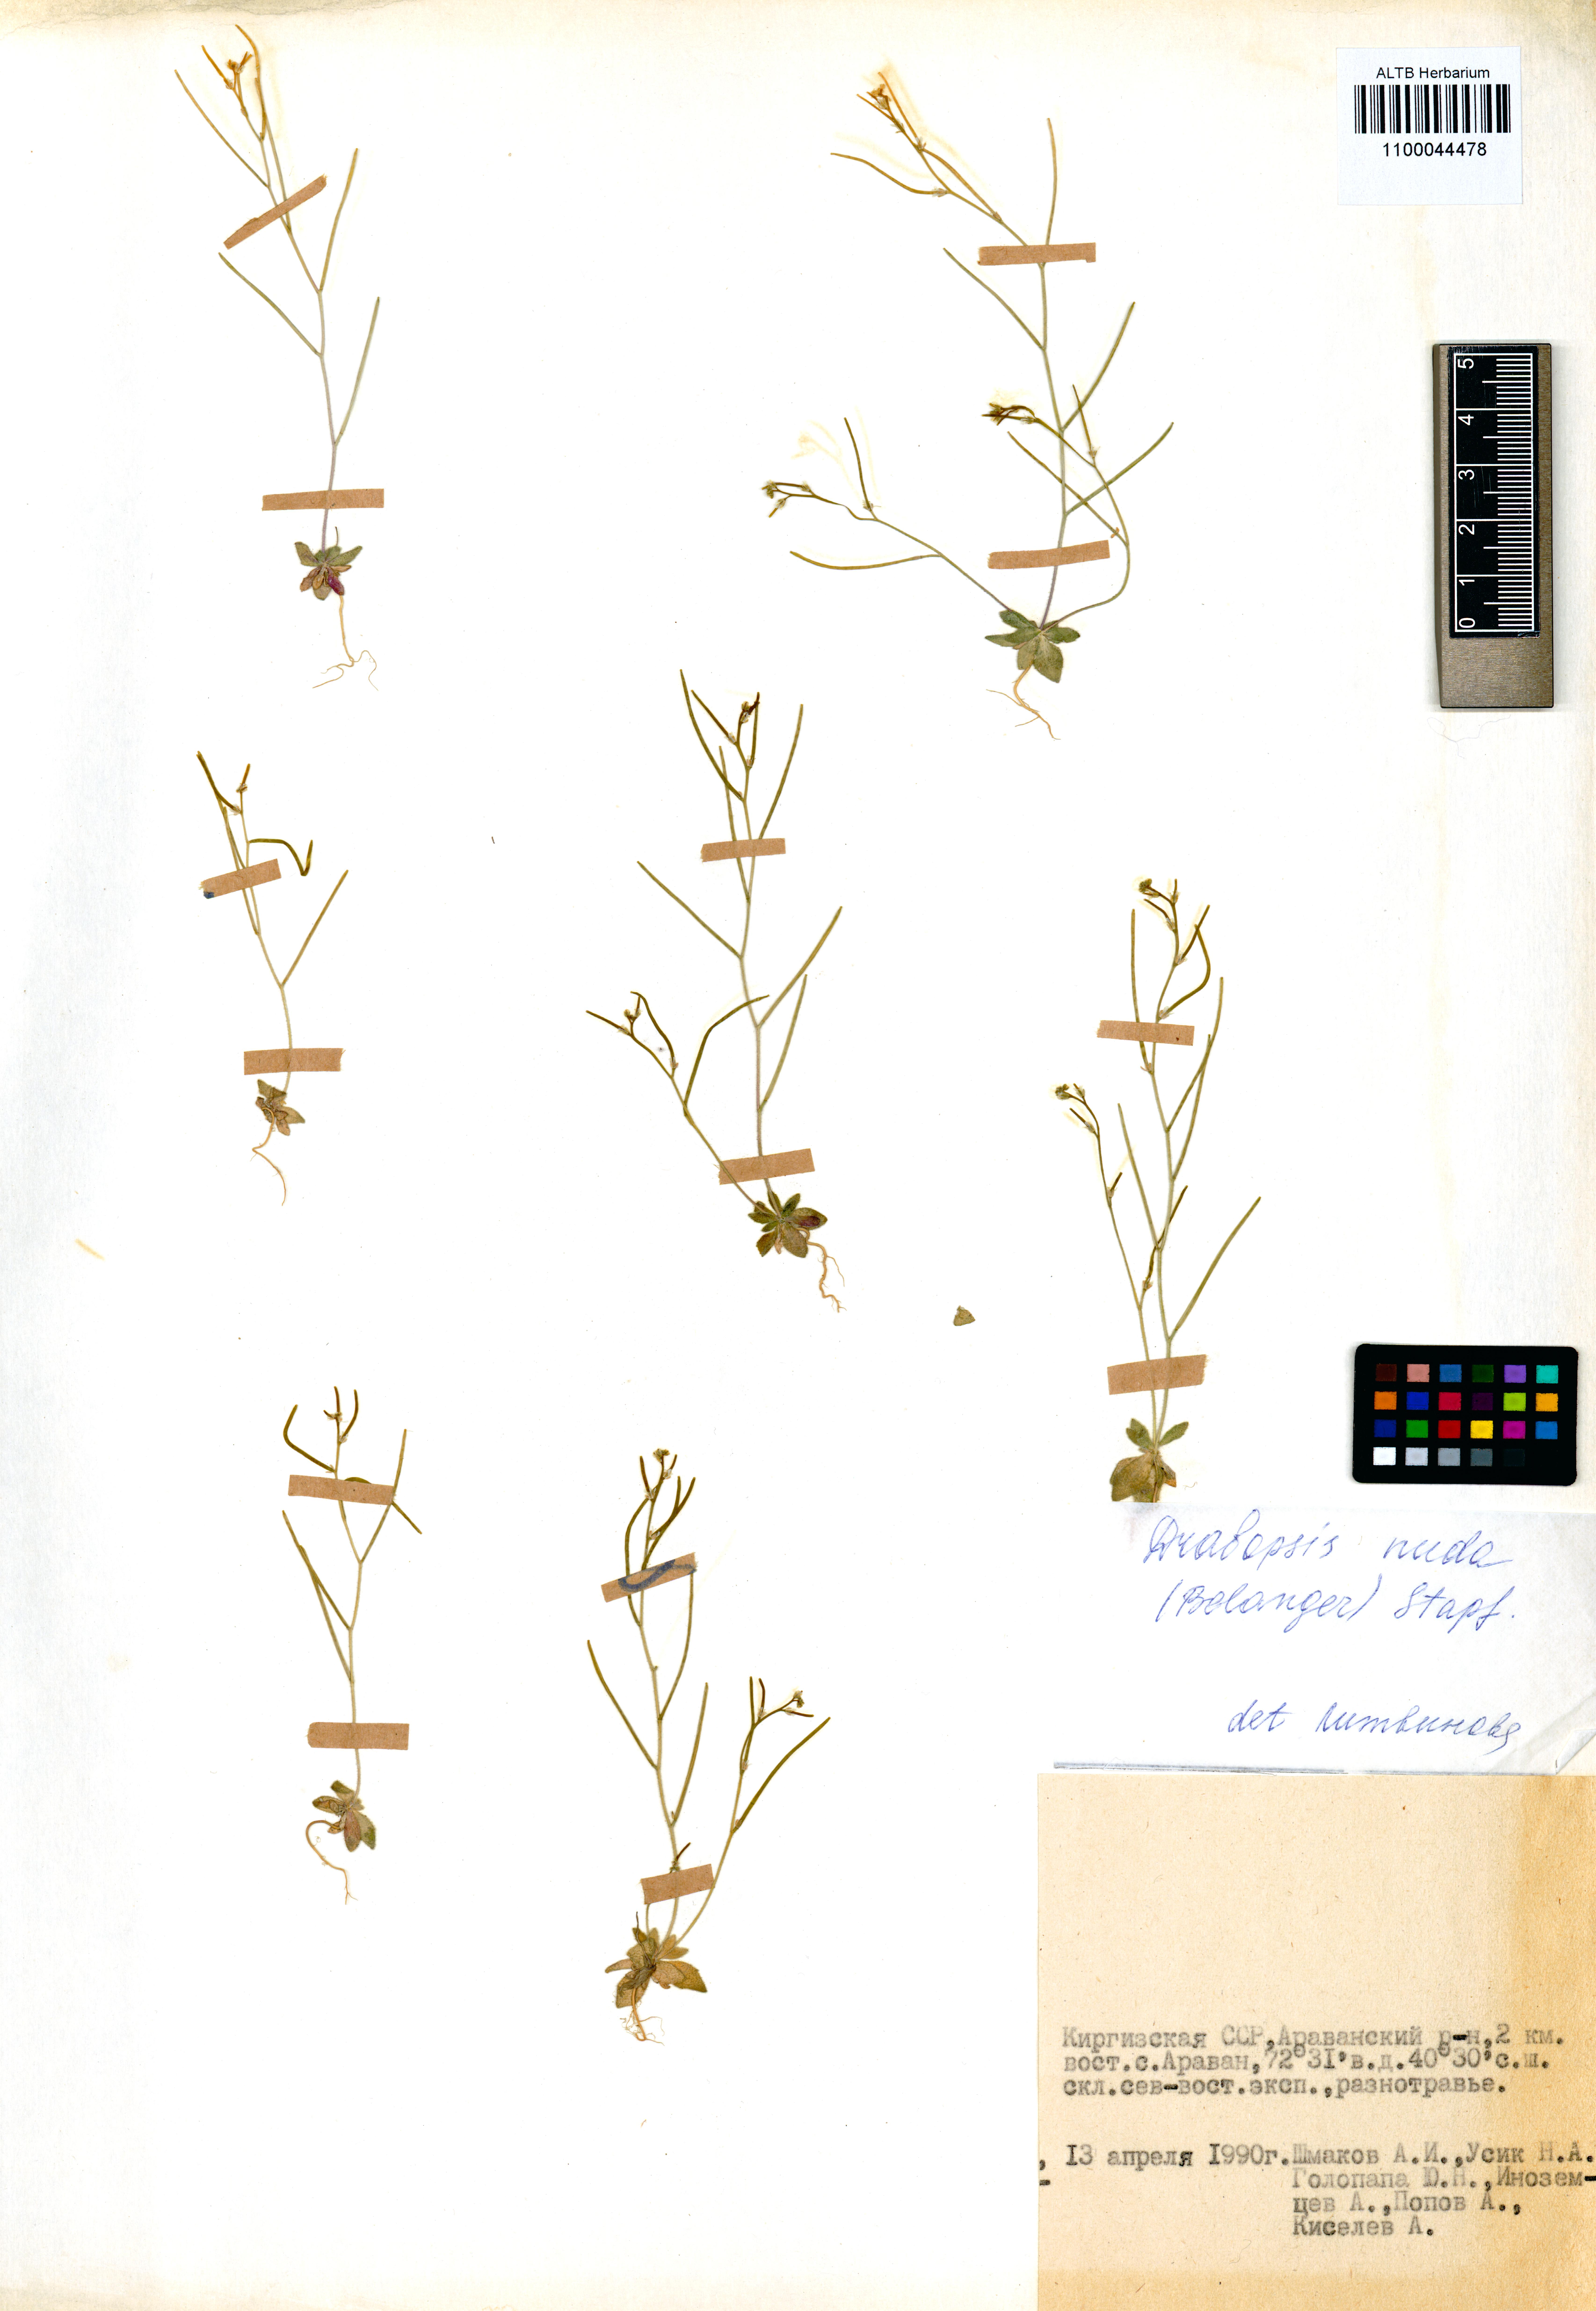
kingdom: Plantae
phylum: Tracheophyta
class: Magnoliopsida
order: Brassicales
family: Brassicaceae
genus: Draba
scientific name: Draba nuda
